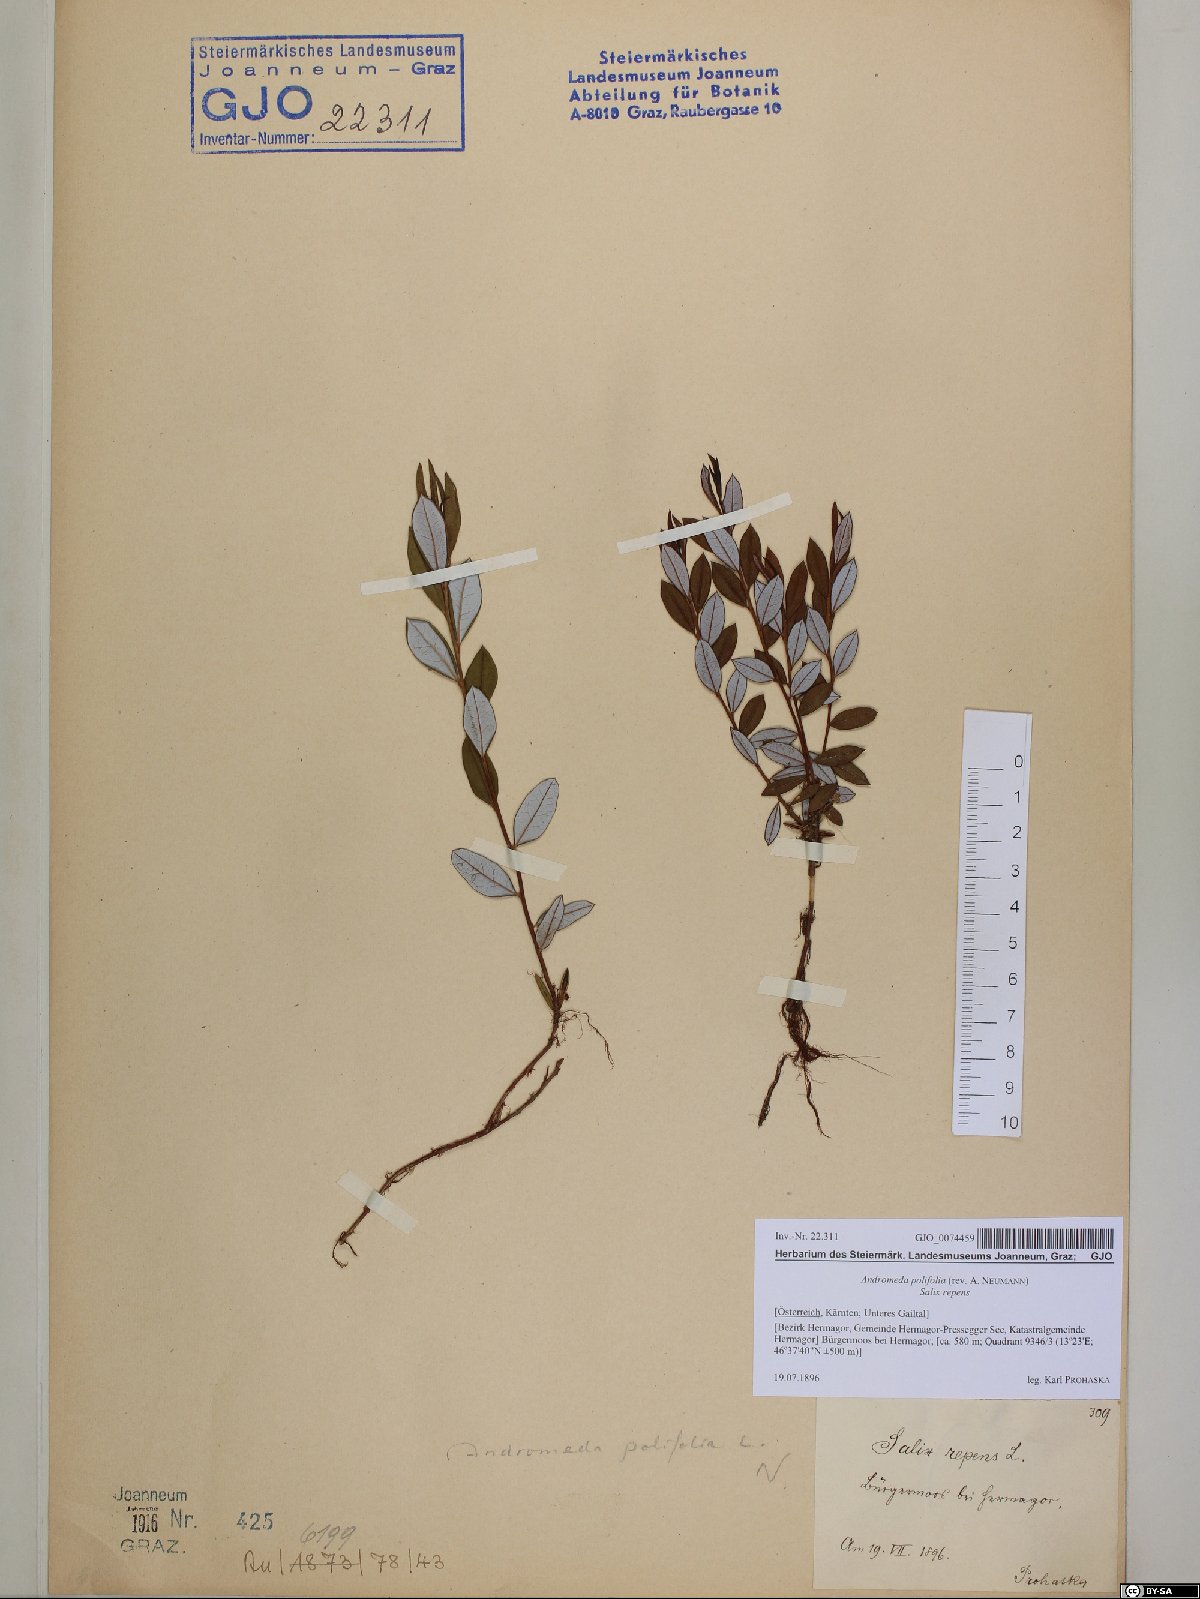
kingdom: Plantae
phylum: Tracheophyta
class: Magnoliopsida
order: Ericales
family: Ericaceae
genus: Andromeda
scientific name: Andromeda polifolia
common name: Bog-rosemary
